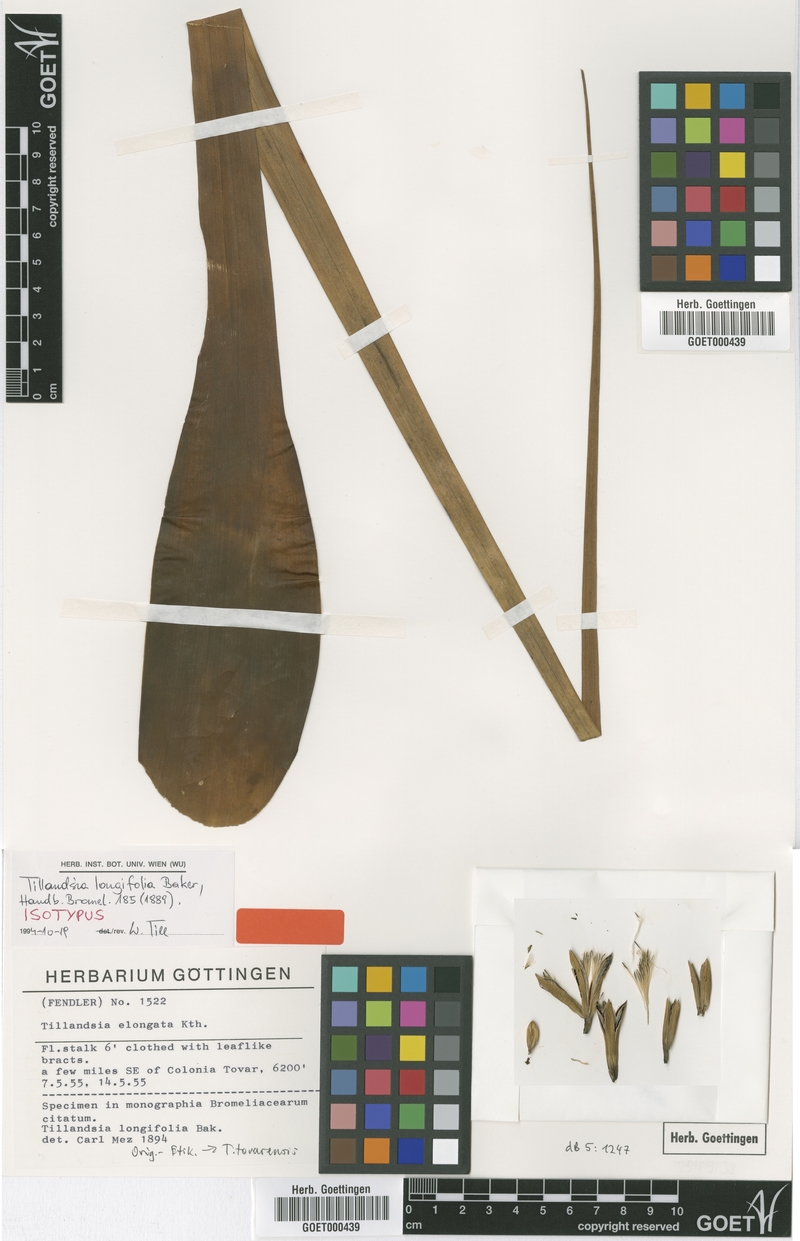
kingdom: Plantae
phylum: Tracheophyta
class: Liliopsida
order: Poales
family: Bromeliaceae
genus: Tillandsia
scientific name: Tillandsia longifolia
